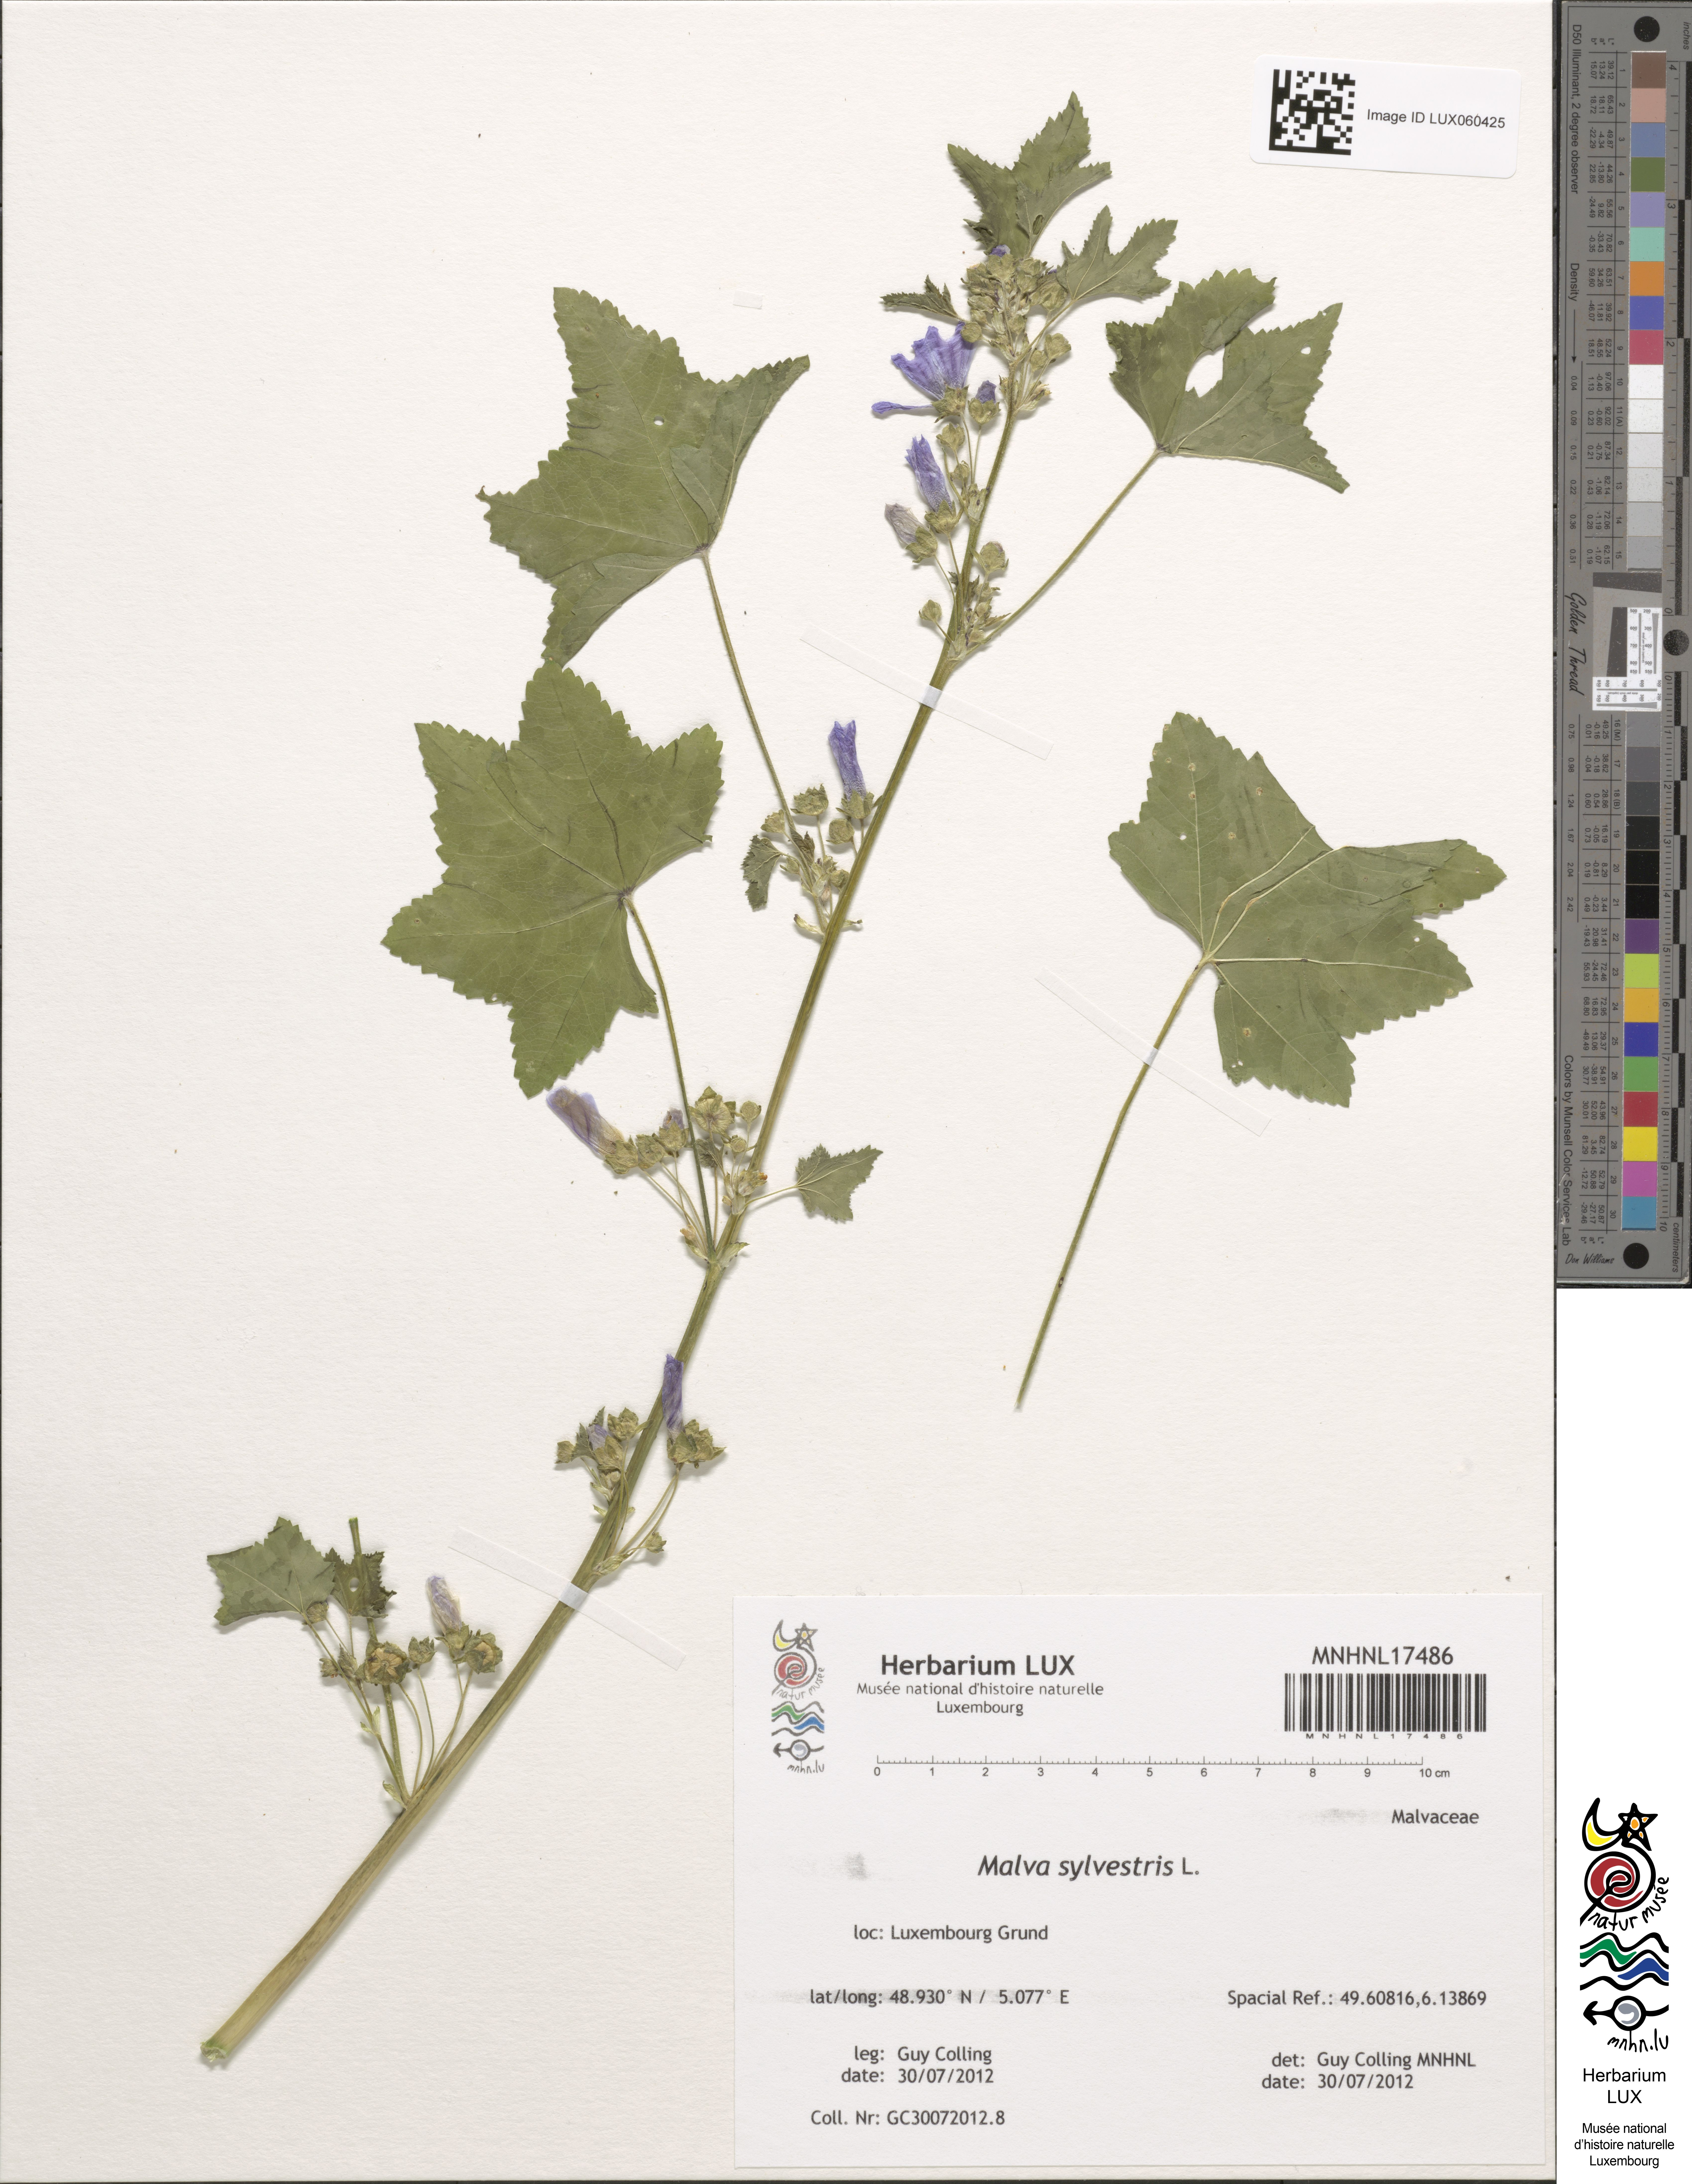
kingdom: Plantae
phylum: Tracheophyta
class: Magnoliopsida
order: Malvales
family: Malvaceae
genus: Malva
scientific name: Malva sylvestris
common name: Common mallow
